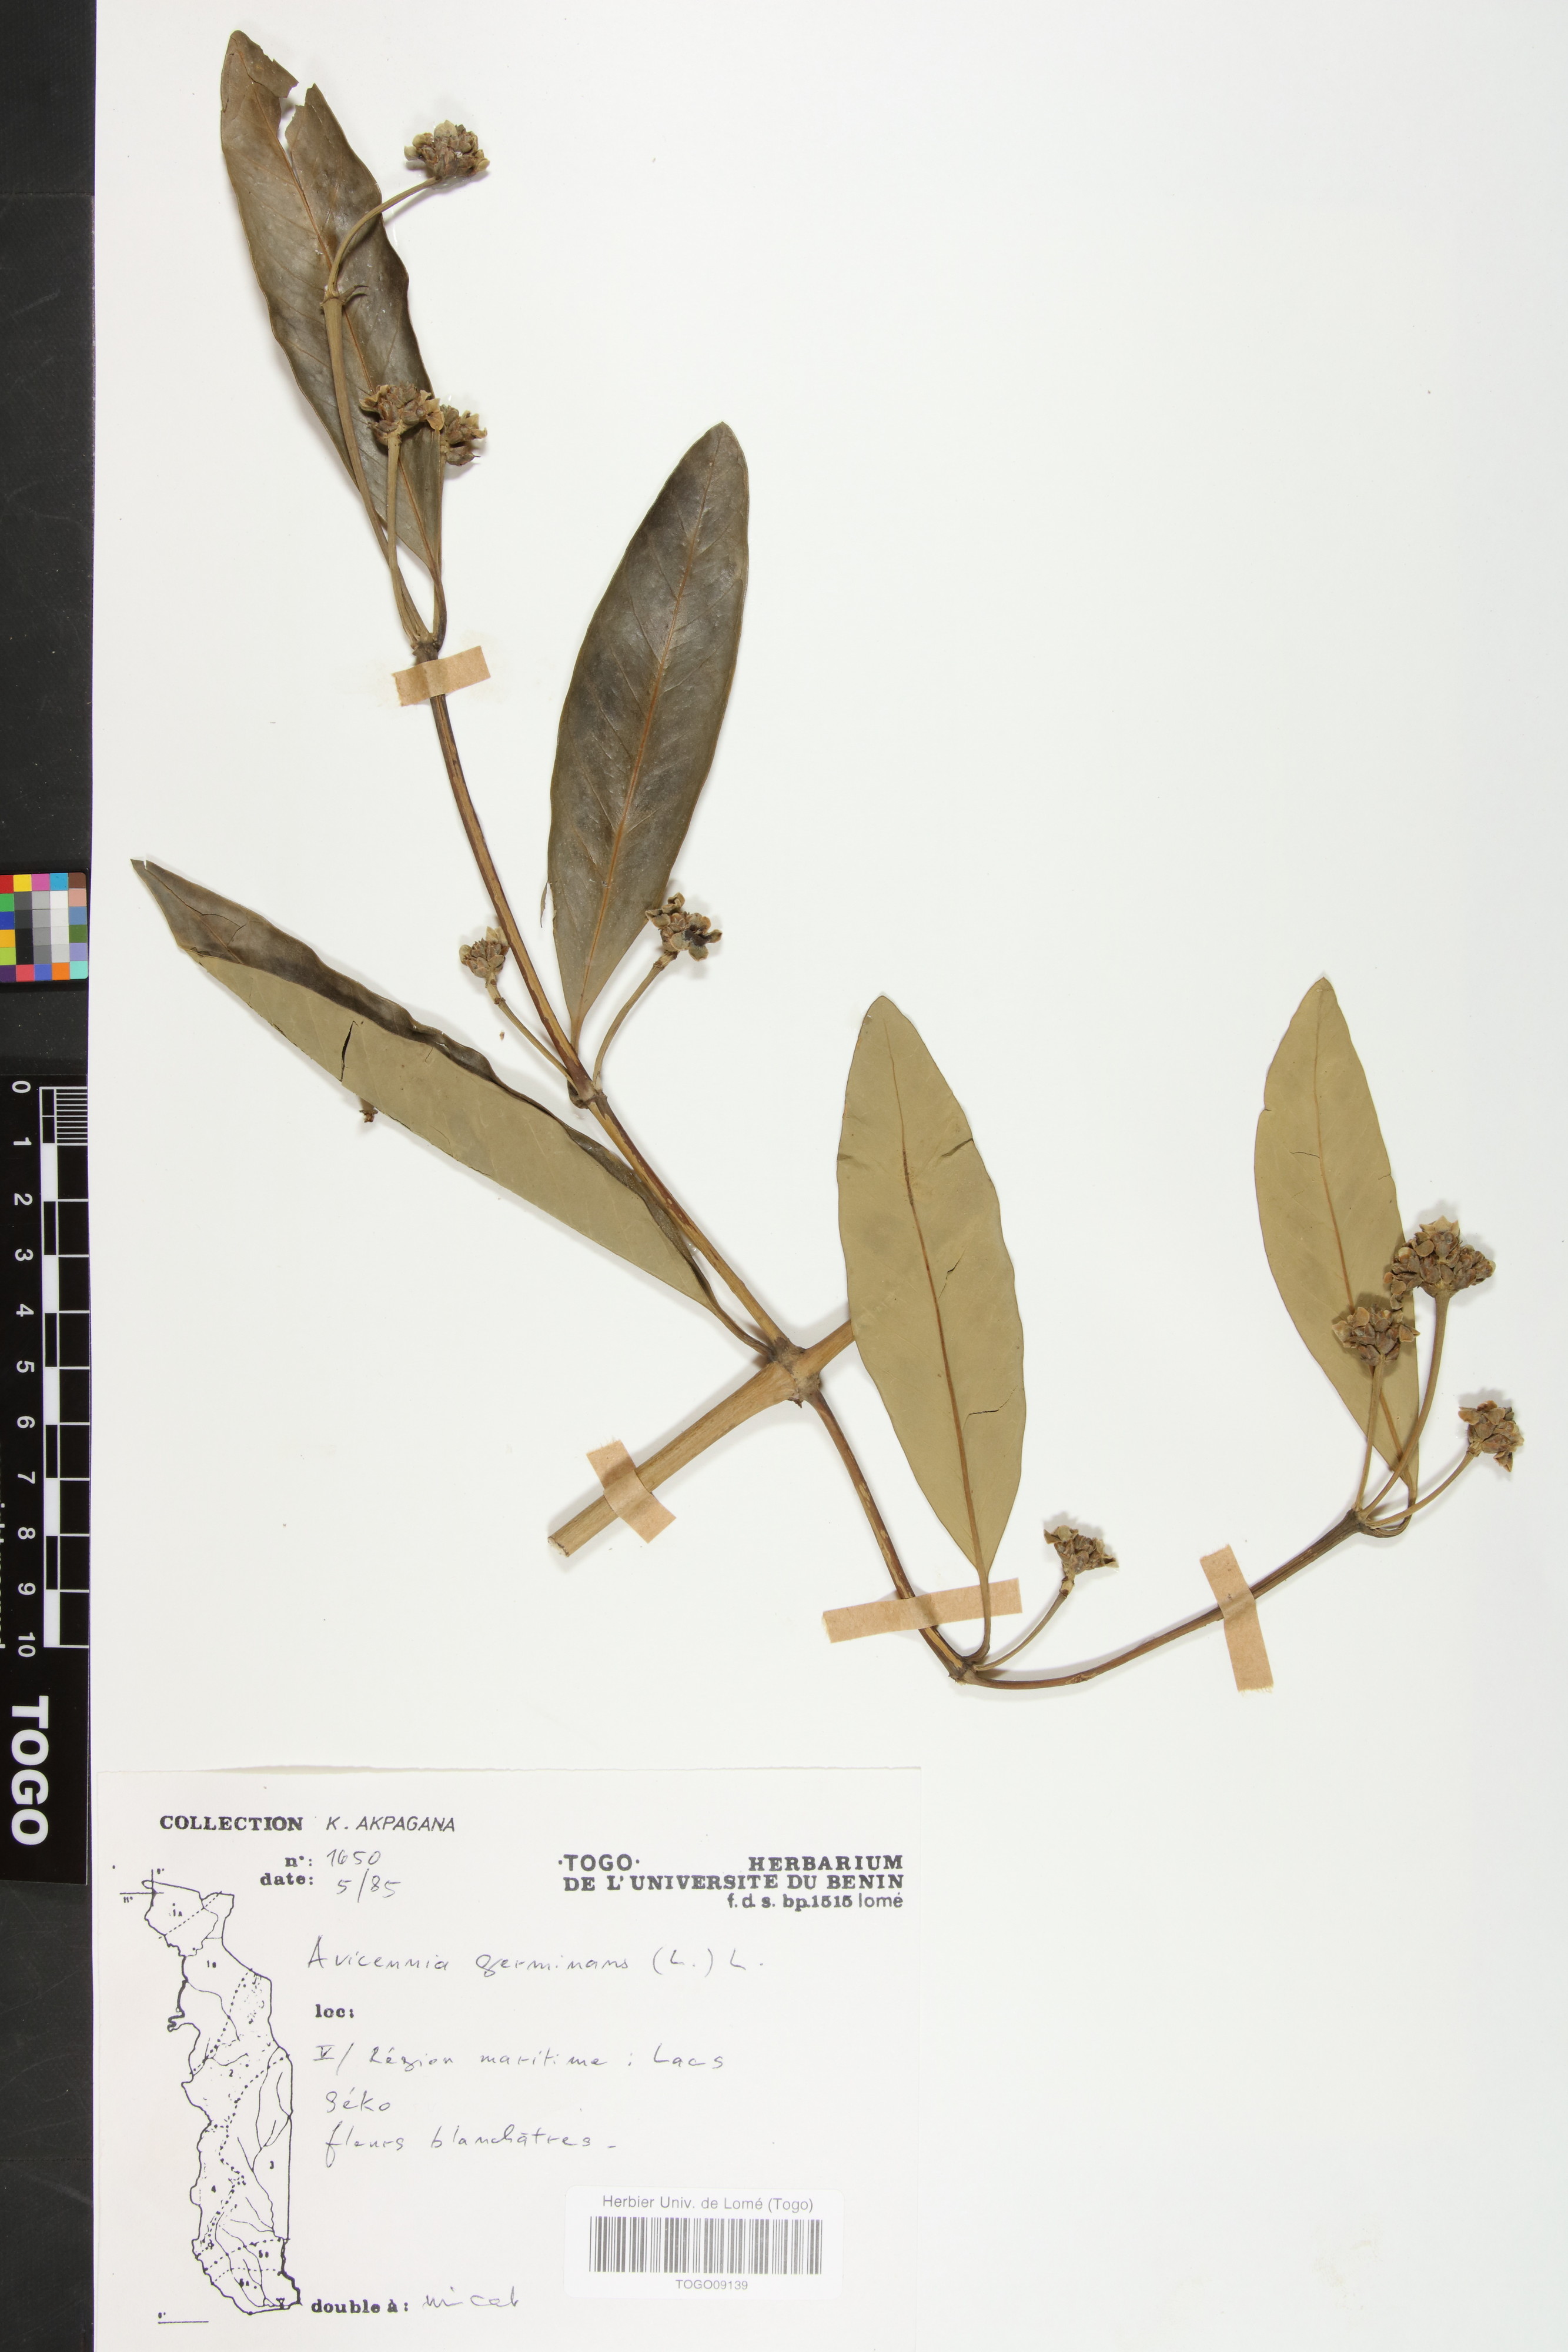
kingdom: Plantae
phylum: Tracheophyta
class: Magnoliopsida
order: Lamiales
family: Acanthaceae
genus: Avicennia
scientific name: Avicennia germinans
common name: Black mangrove
